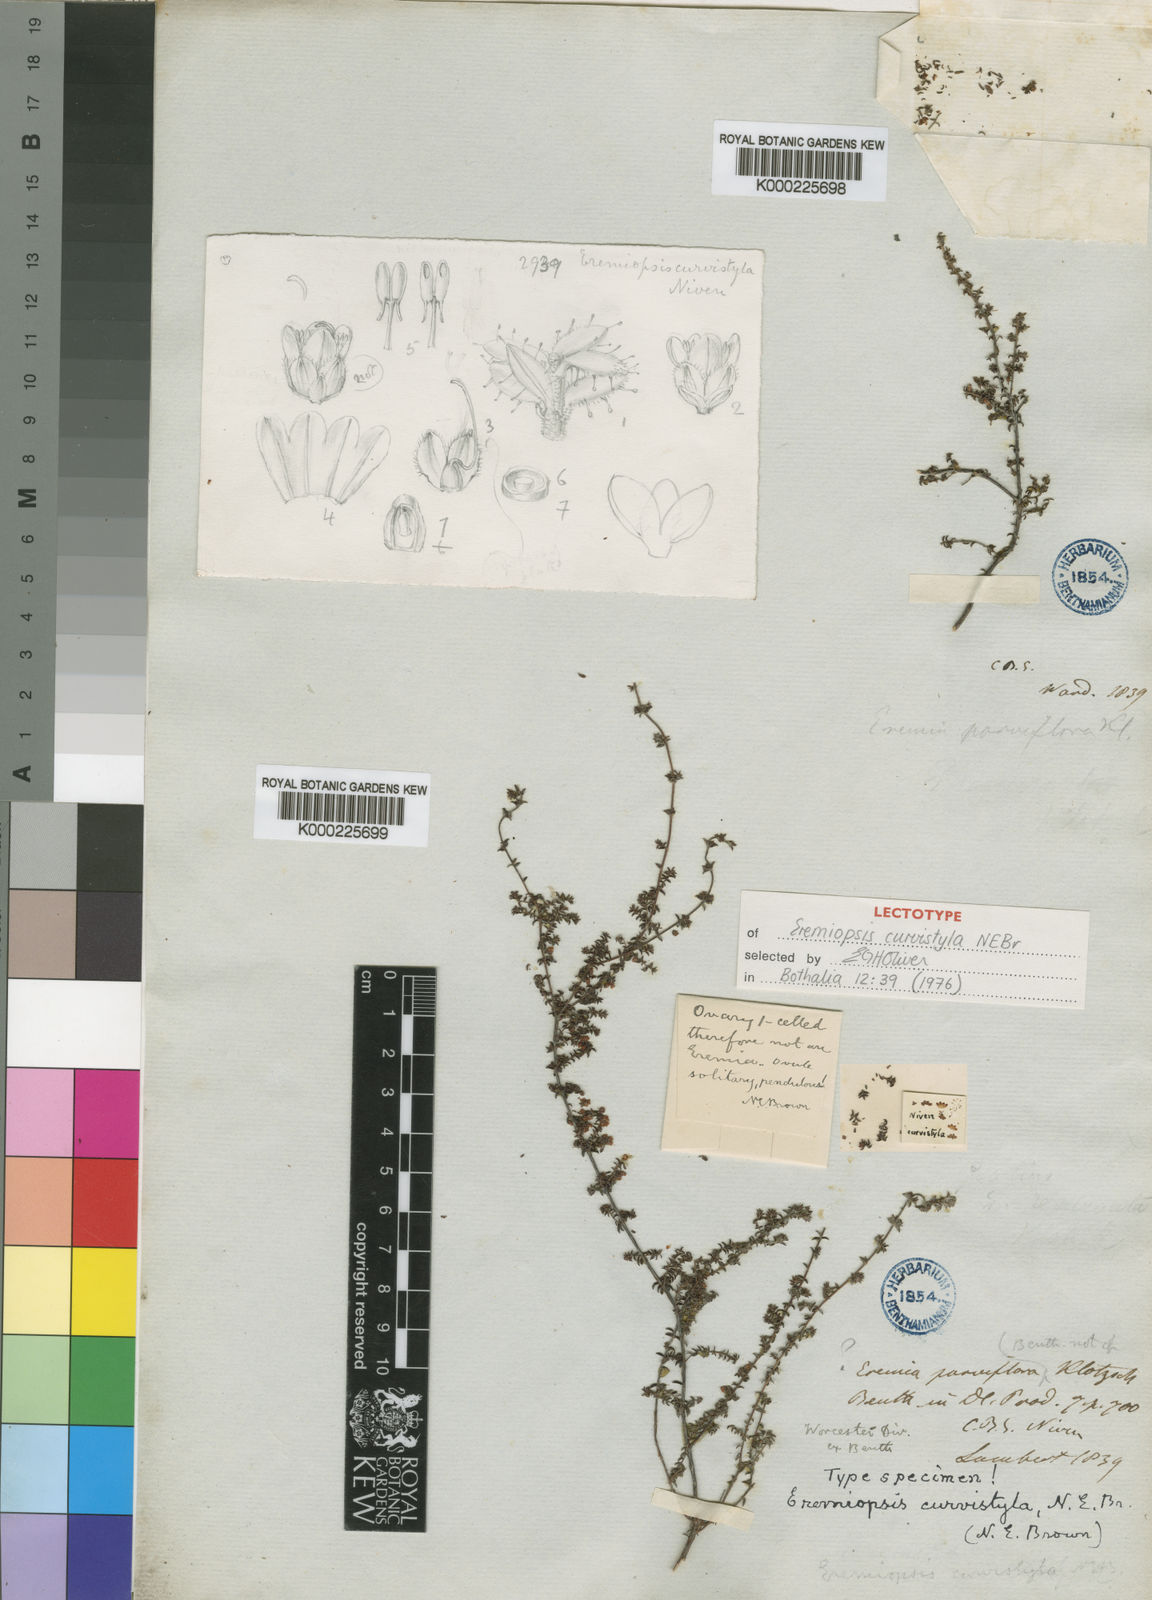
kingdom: Plantae
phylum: Tracheophyta
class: Magnoliopsida
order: Ericales
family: Ericaceae
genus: Erica
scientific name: Erica curvistyla
